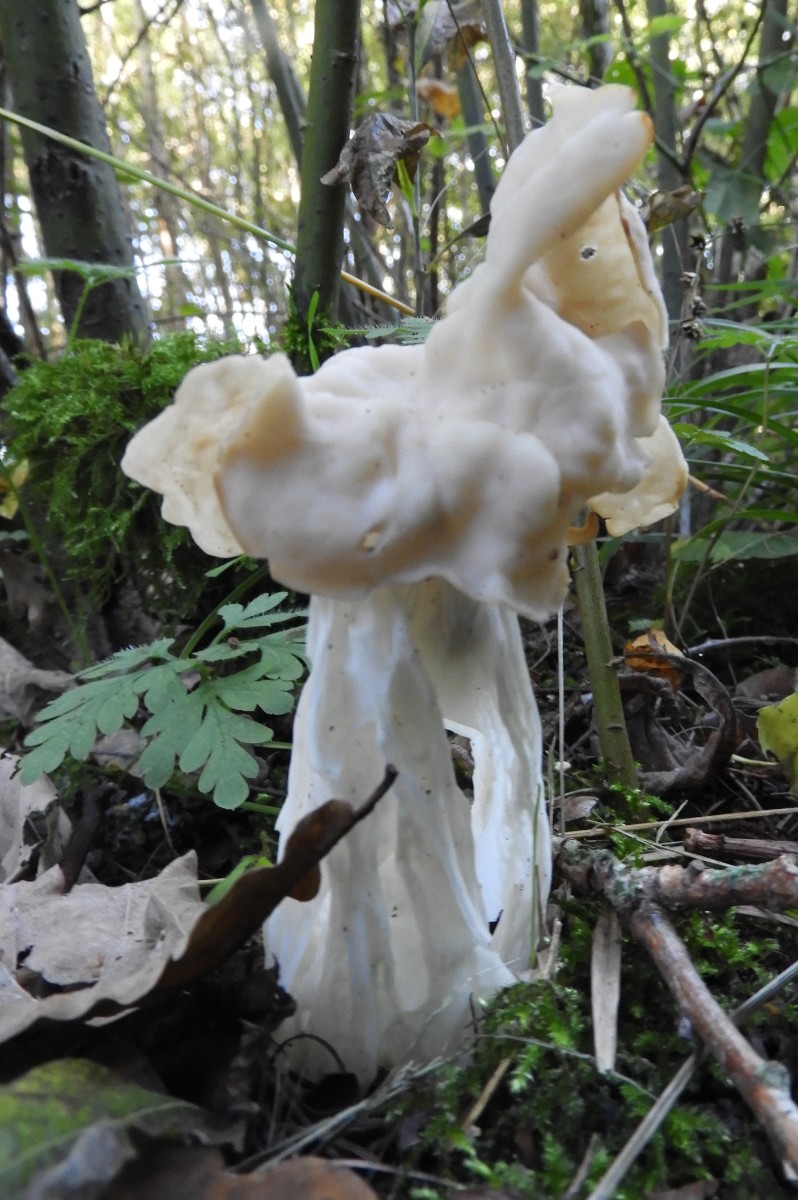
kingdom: Fungi
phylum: Ascomycota
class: Pezizomycetes
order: Pezizales
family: Helvellaceae
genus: Helvella
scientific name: Helvella crispa
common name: kruset foldhat
